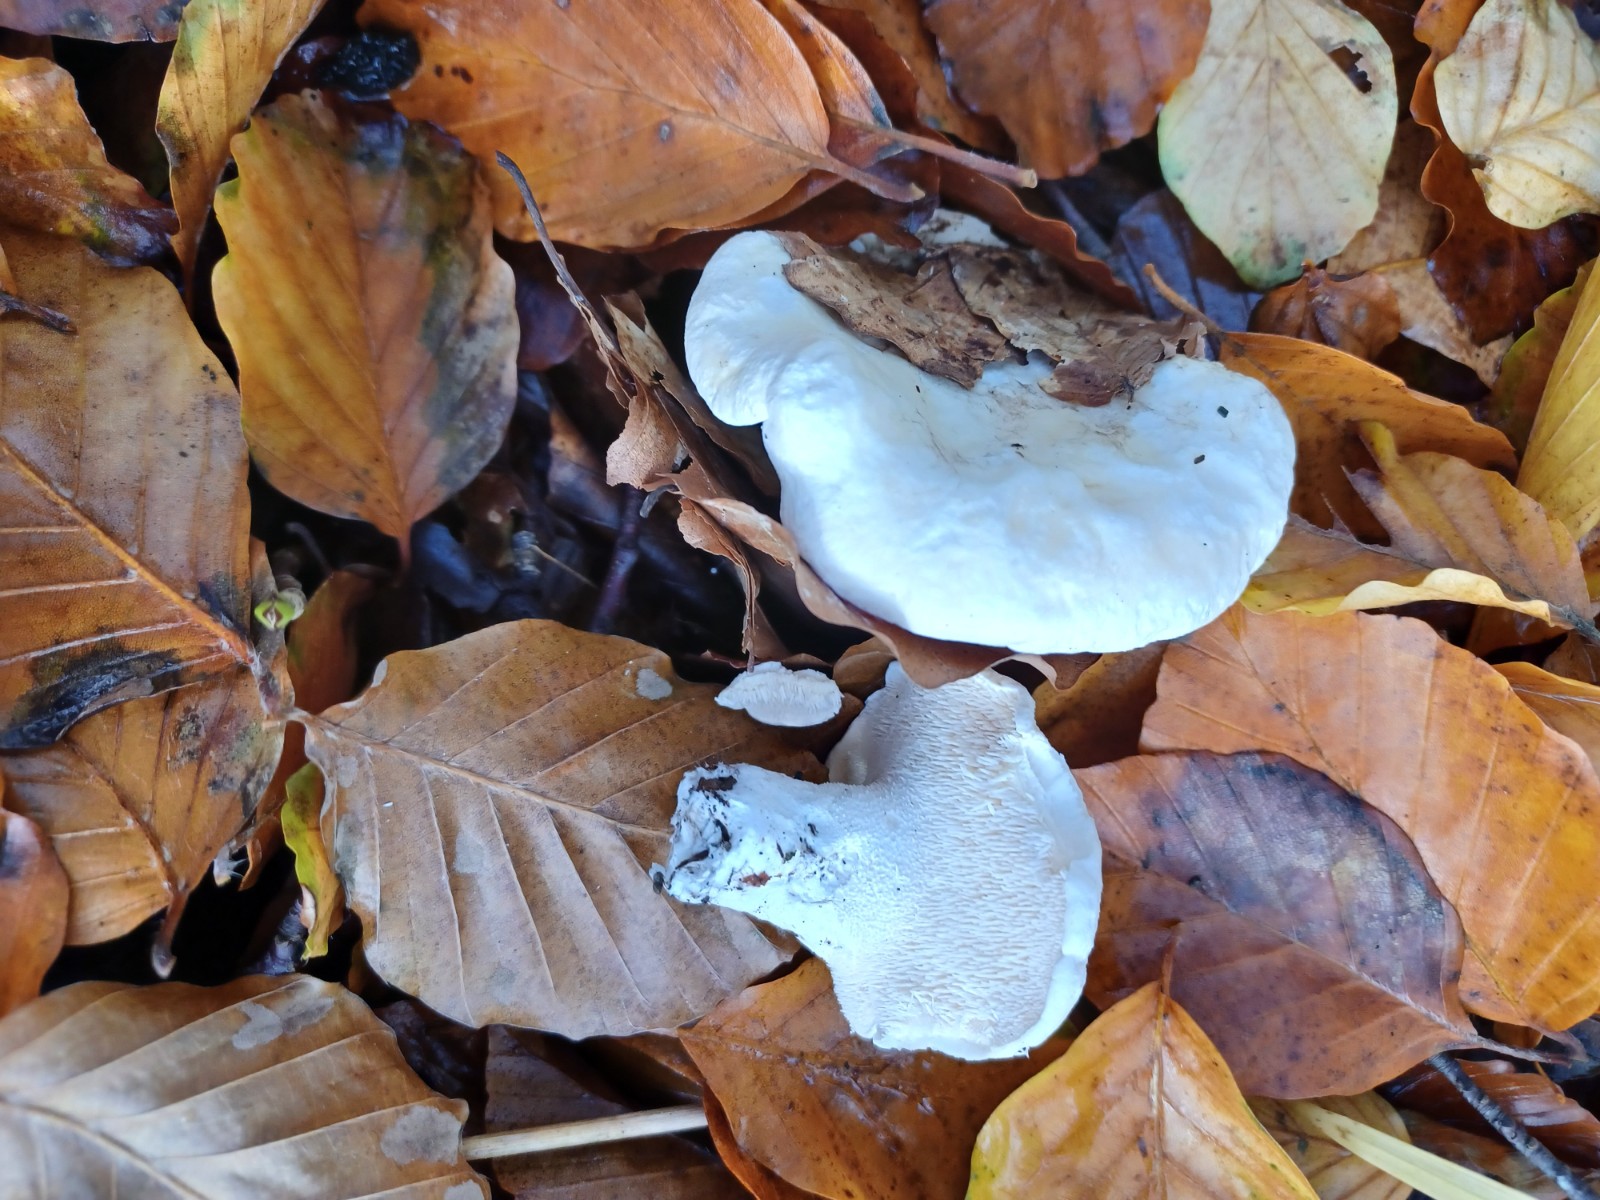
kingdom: Fungi
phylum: Basidiomycota
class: Agaricomycetes
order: Cantharellales
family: Hydnaceae
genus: Hydnum
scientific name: Hydnum repandum
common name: hvid pigsvamp
